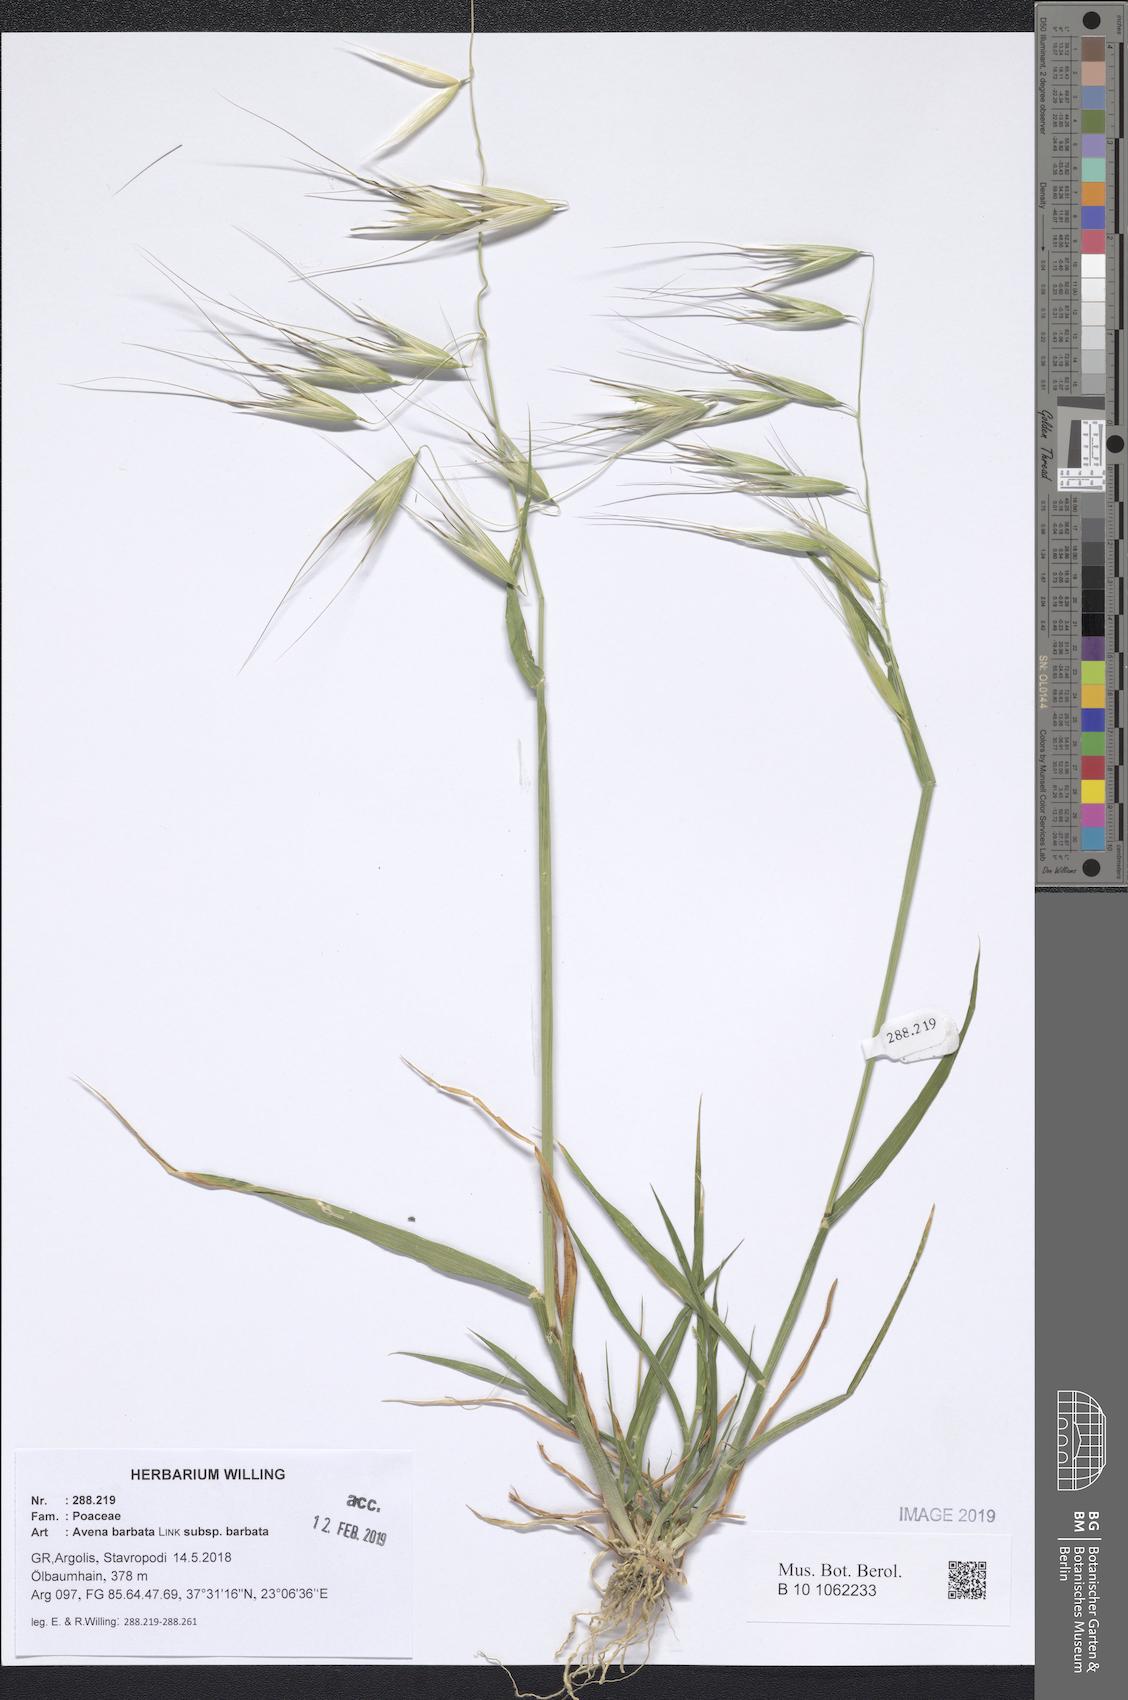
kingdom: Plantae
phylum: Tracheophyta
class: Liliopsida
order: Poales
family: Poaceae
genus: Avena
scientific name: Avena barbata
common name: Slender oat
